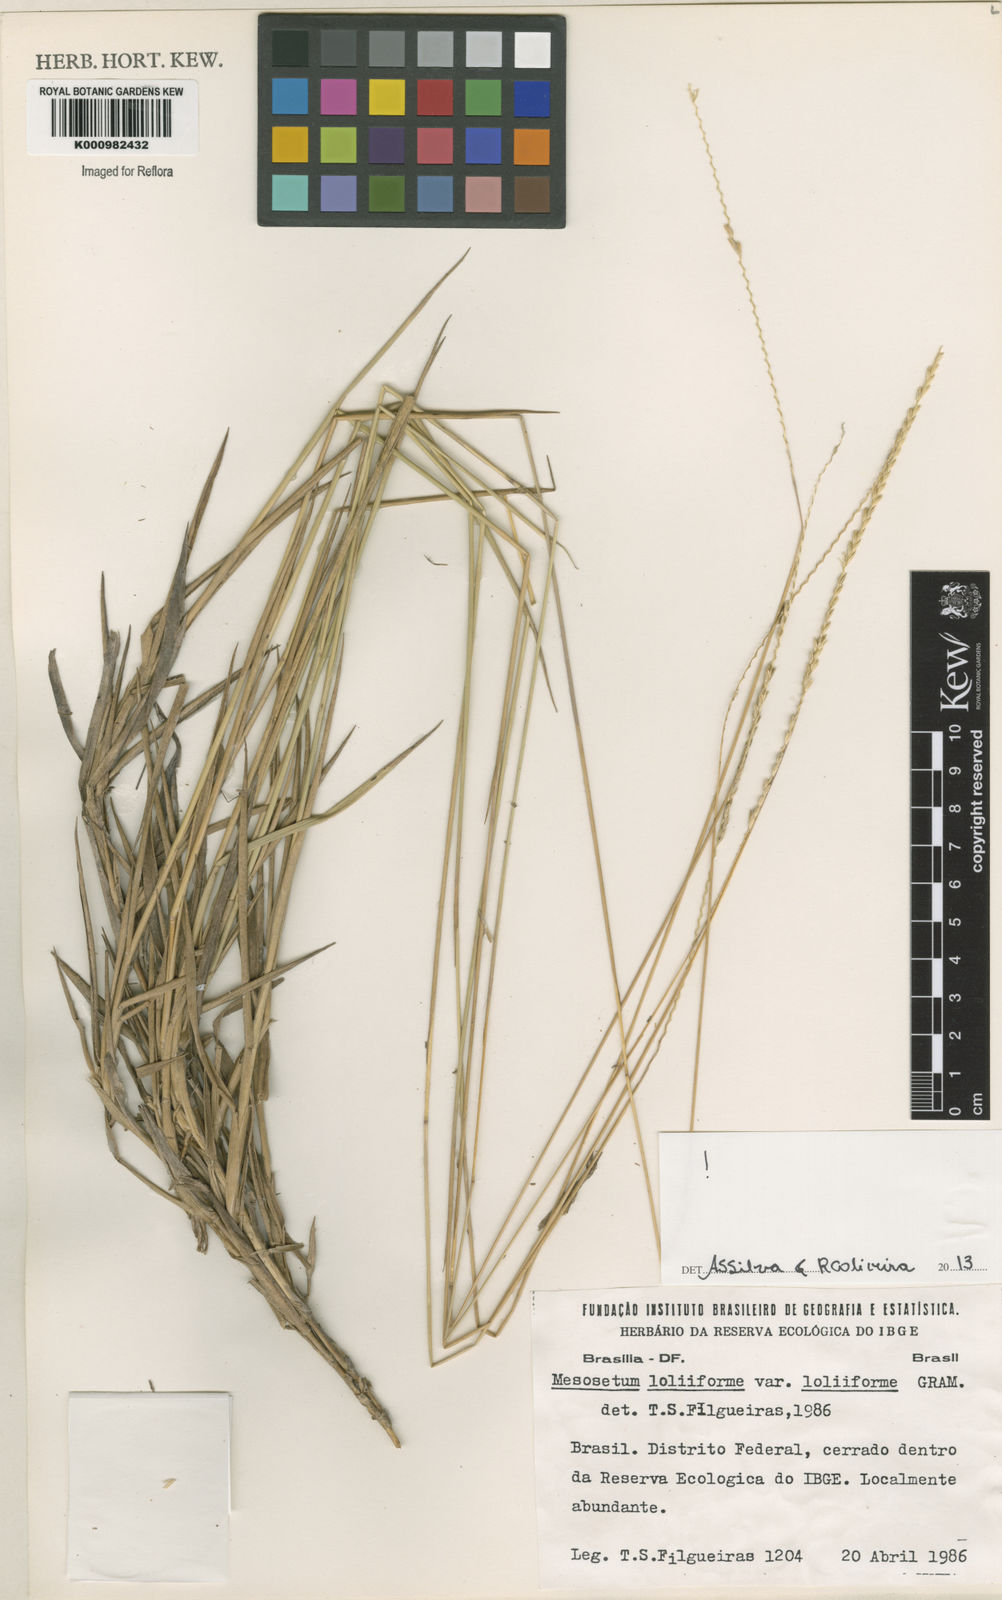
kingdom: Plantae
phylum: Tracheophyta
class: Liliopsida
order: Poales
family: Poaceae
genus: Mesosetum
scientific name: Mesosetum
